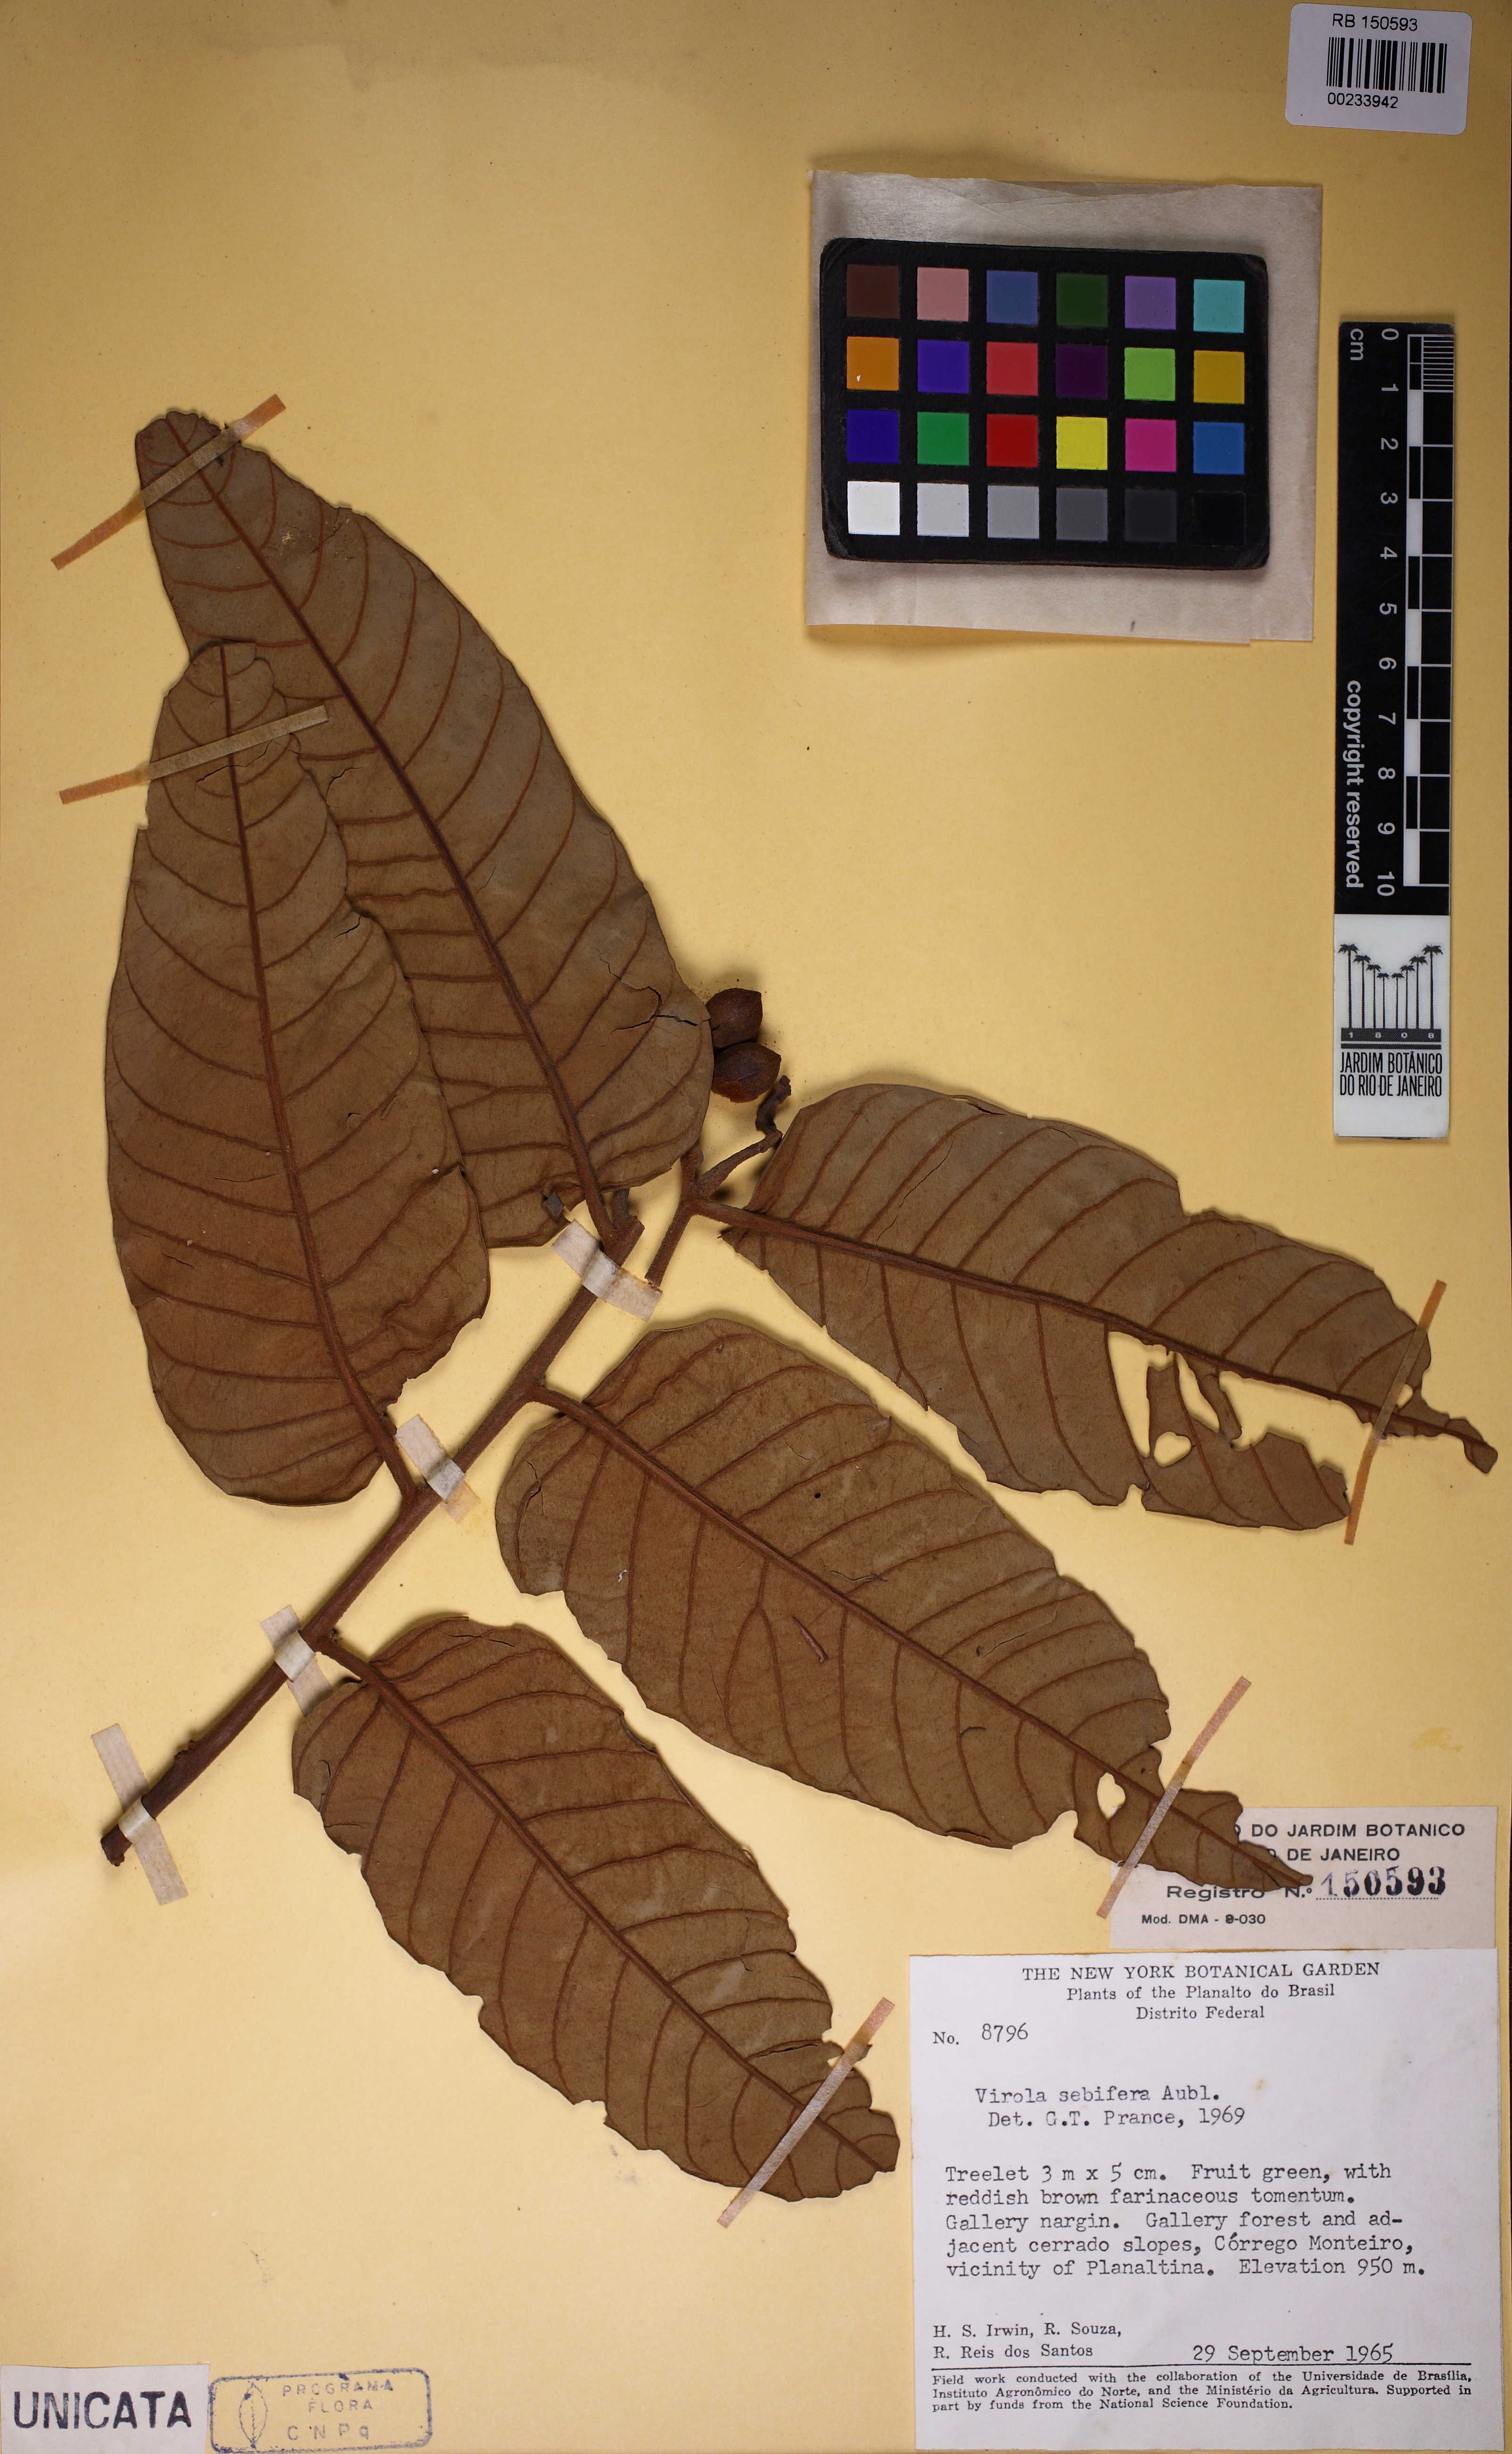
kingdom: Plantae
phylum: Tracheophyta
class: Magnoliopsida
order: Magnoliales
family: Myristicaceae
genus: Virola
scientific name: Virola sebifera
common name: Red ucuuba
